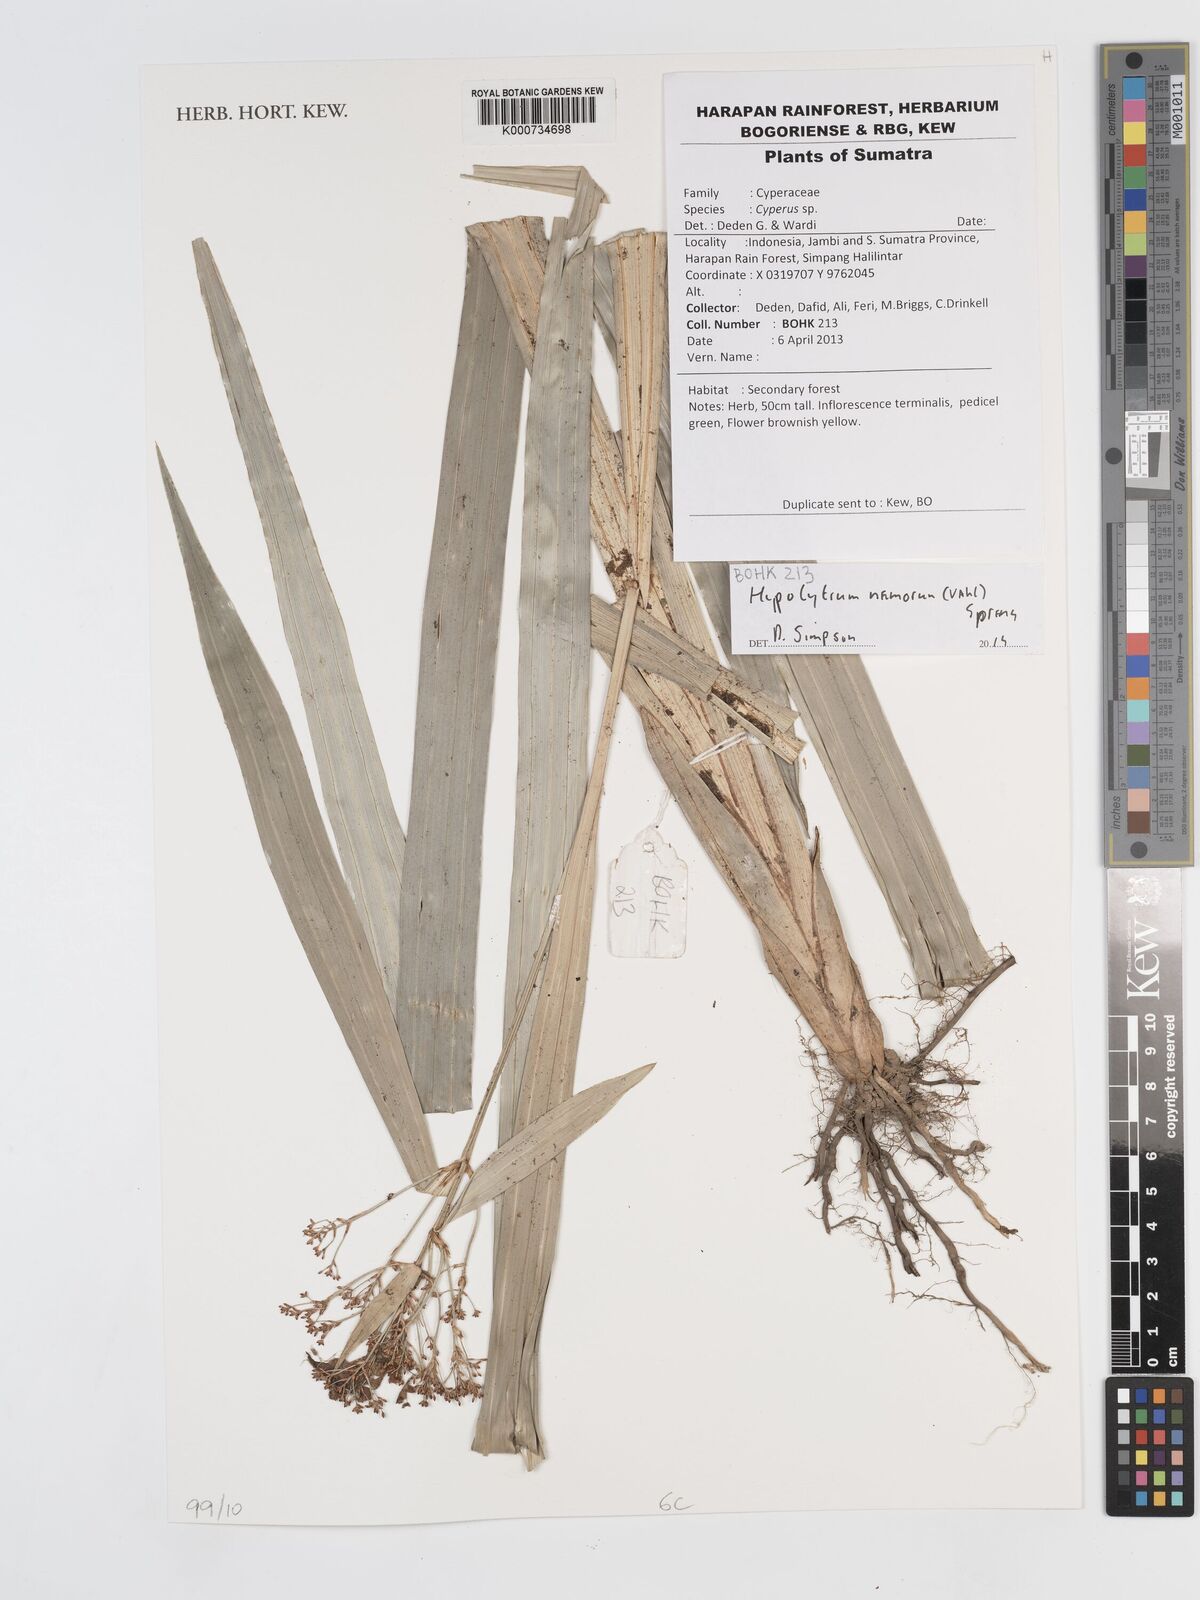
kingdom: Plantae
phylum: Tracheophyta
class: Liliopsida
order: Poales
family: Cyperaceae
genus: Hypolytrum
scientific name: Hypolytrum nemorum
